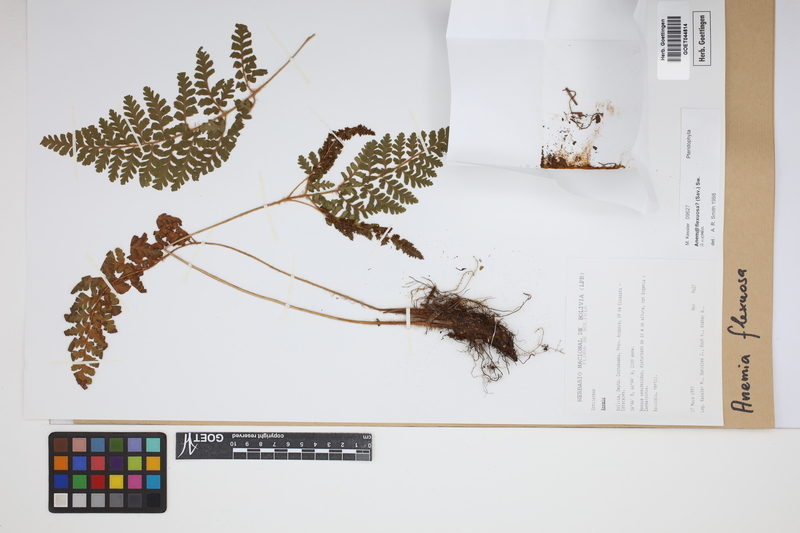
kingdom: Plantae
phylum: Tracheophyta
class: Polypodiopsida
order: Schizaeales
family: Anemiaceae
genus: Anemia
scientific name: Anemia flexuosa
